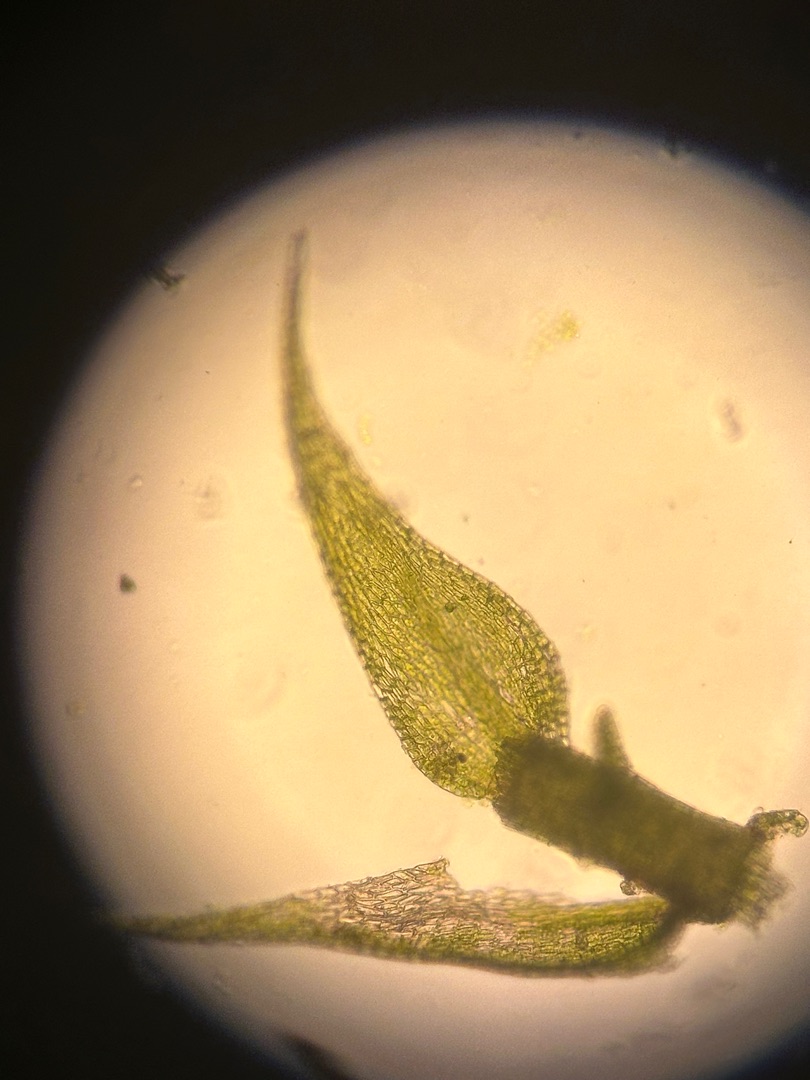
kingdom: Plantae
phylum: Bryophyta
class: Bryopsida
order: Hypnales
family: Amblystegiaceae
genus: Amblystegium
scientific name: Amblystegium serpens
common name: Almindelig krybmos
